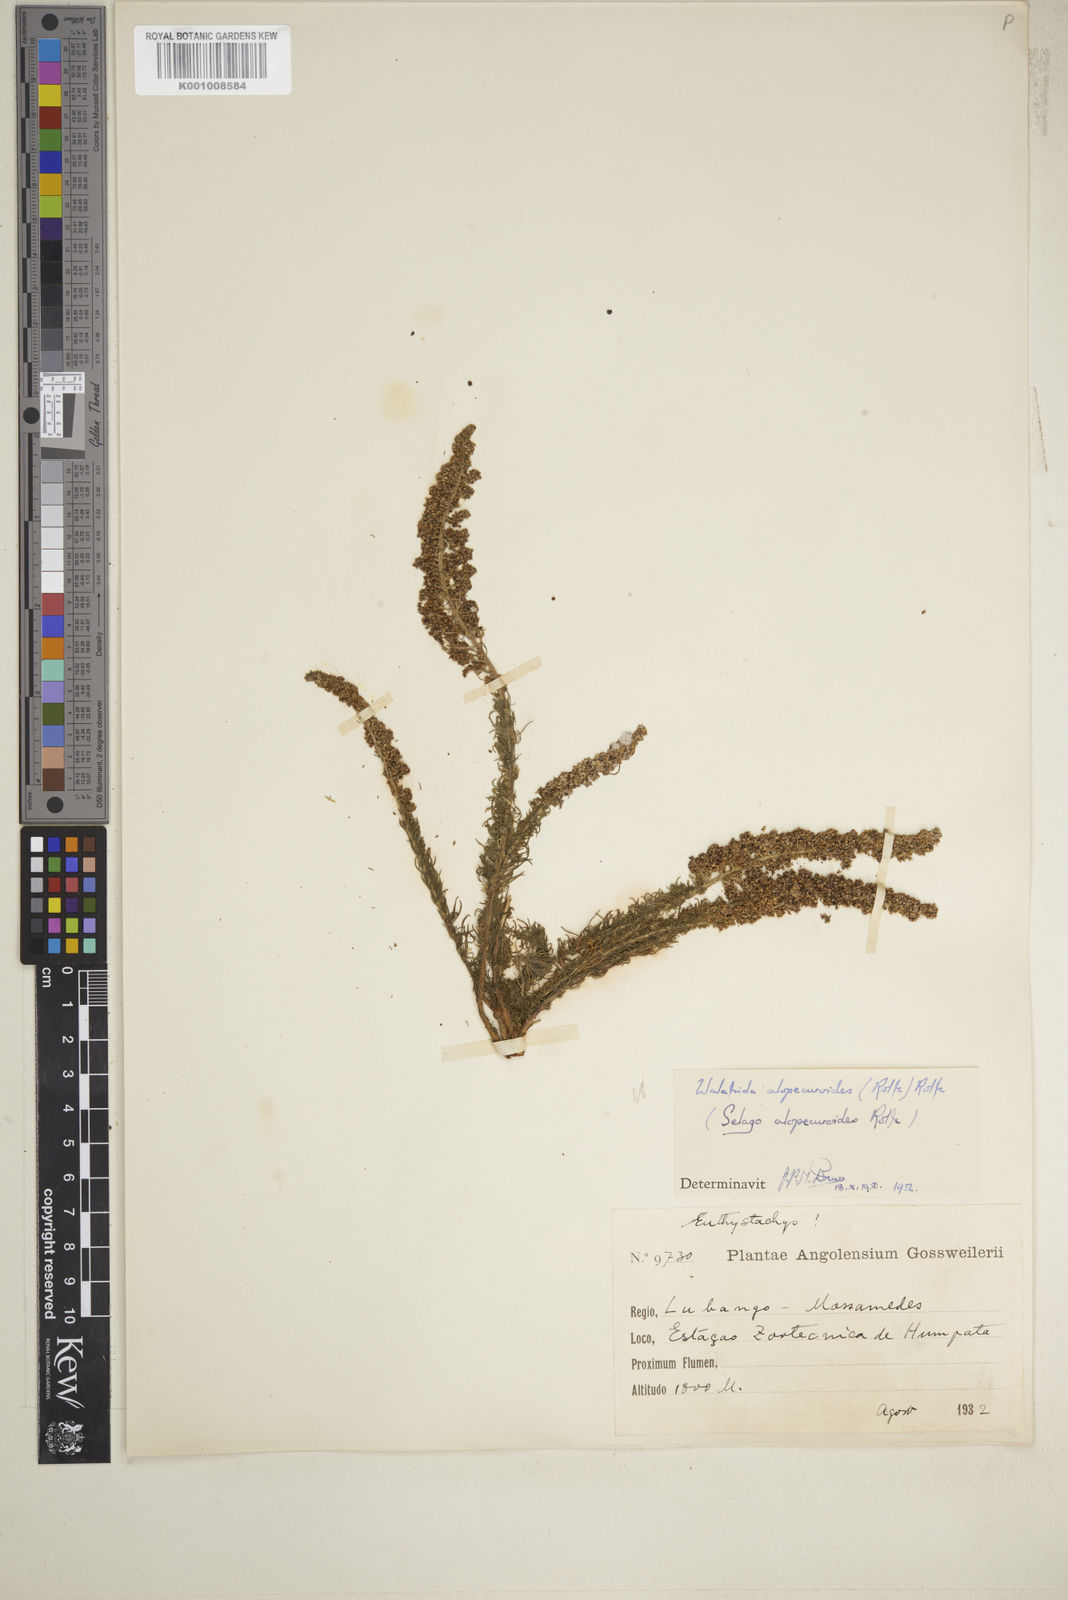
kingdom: Plantae
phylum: Tracheophyta
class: Magnoliopsida
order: Lamiales
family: Scrophulariaceae
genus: Selago
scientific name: Selago alopecuroides
